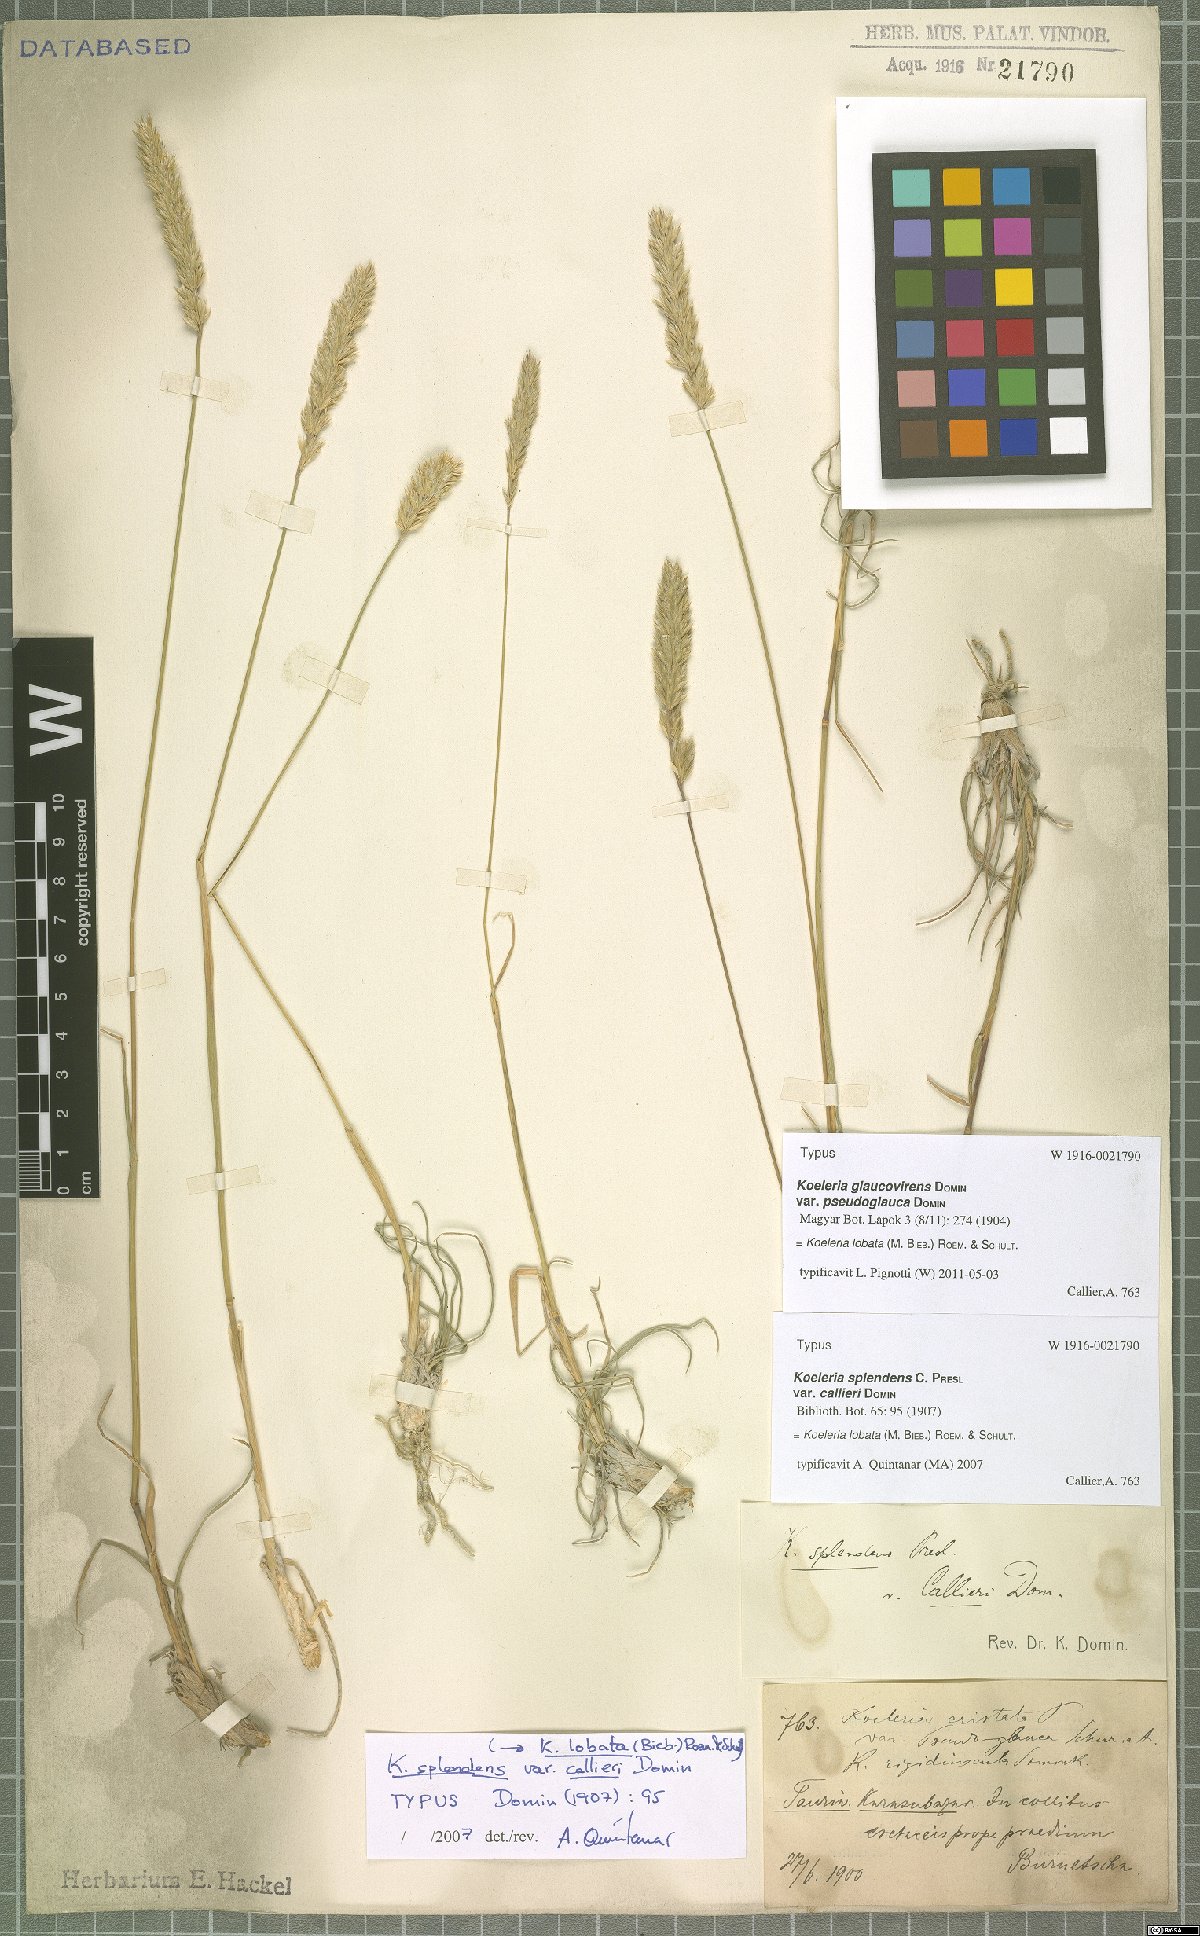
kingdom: Plantae
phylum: Tracheophyta
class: Liliopsida
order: Poales
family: Poaceae
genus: Koeleria
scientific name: Koeleria brevis
